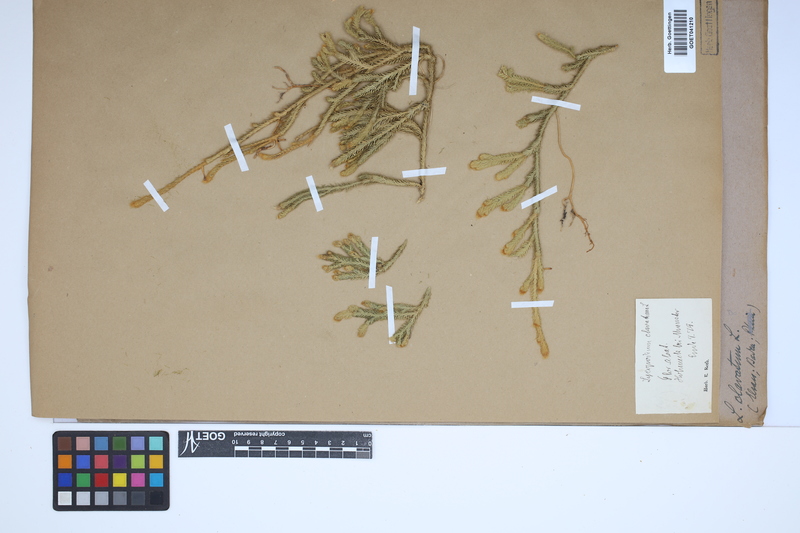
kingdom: Plantae
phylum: Tracheophyta
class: Lycopodiopsida
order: Lycopodiales
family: Lycopodiaceae
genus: Lycopodium
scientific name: Lycopodium clavatum
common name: Stag's-horn clubmoss
